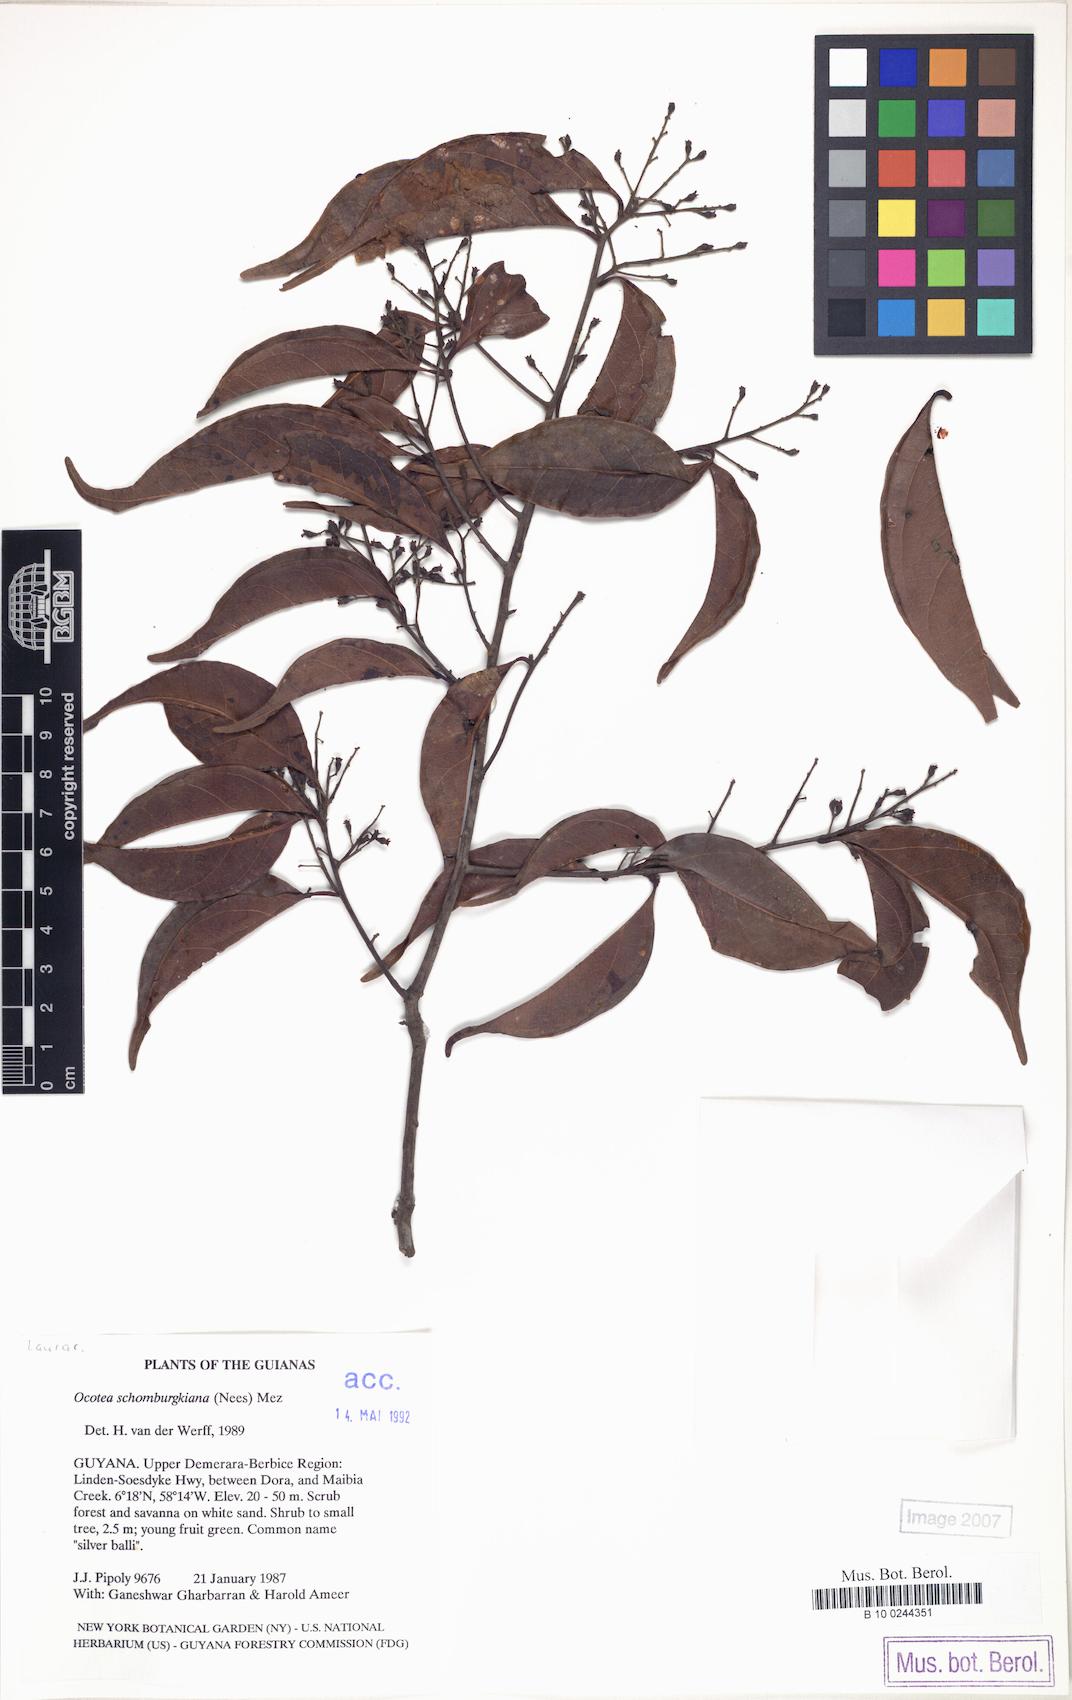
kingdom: Plantae
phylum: Tracheophyta
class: Magnoliopsida
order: Laurales
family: Lauraceae
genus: Ocotea
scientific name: Ocotea schomburgkiana
